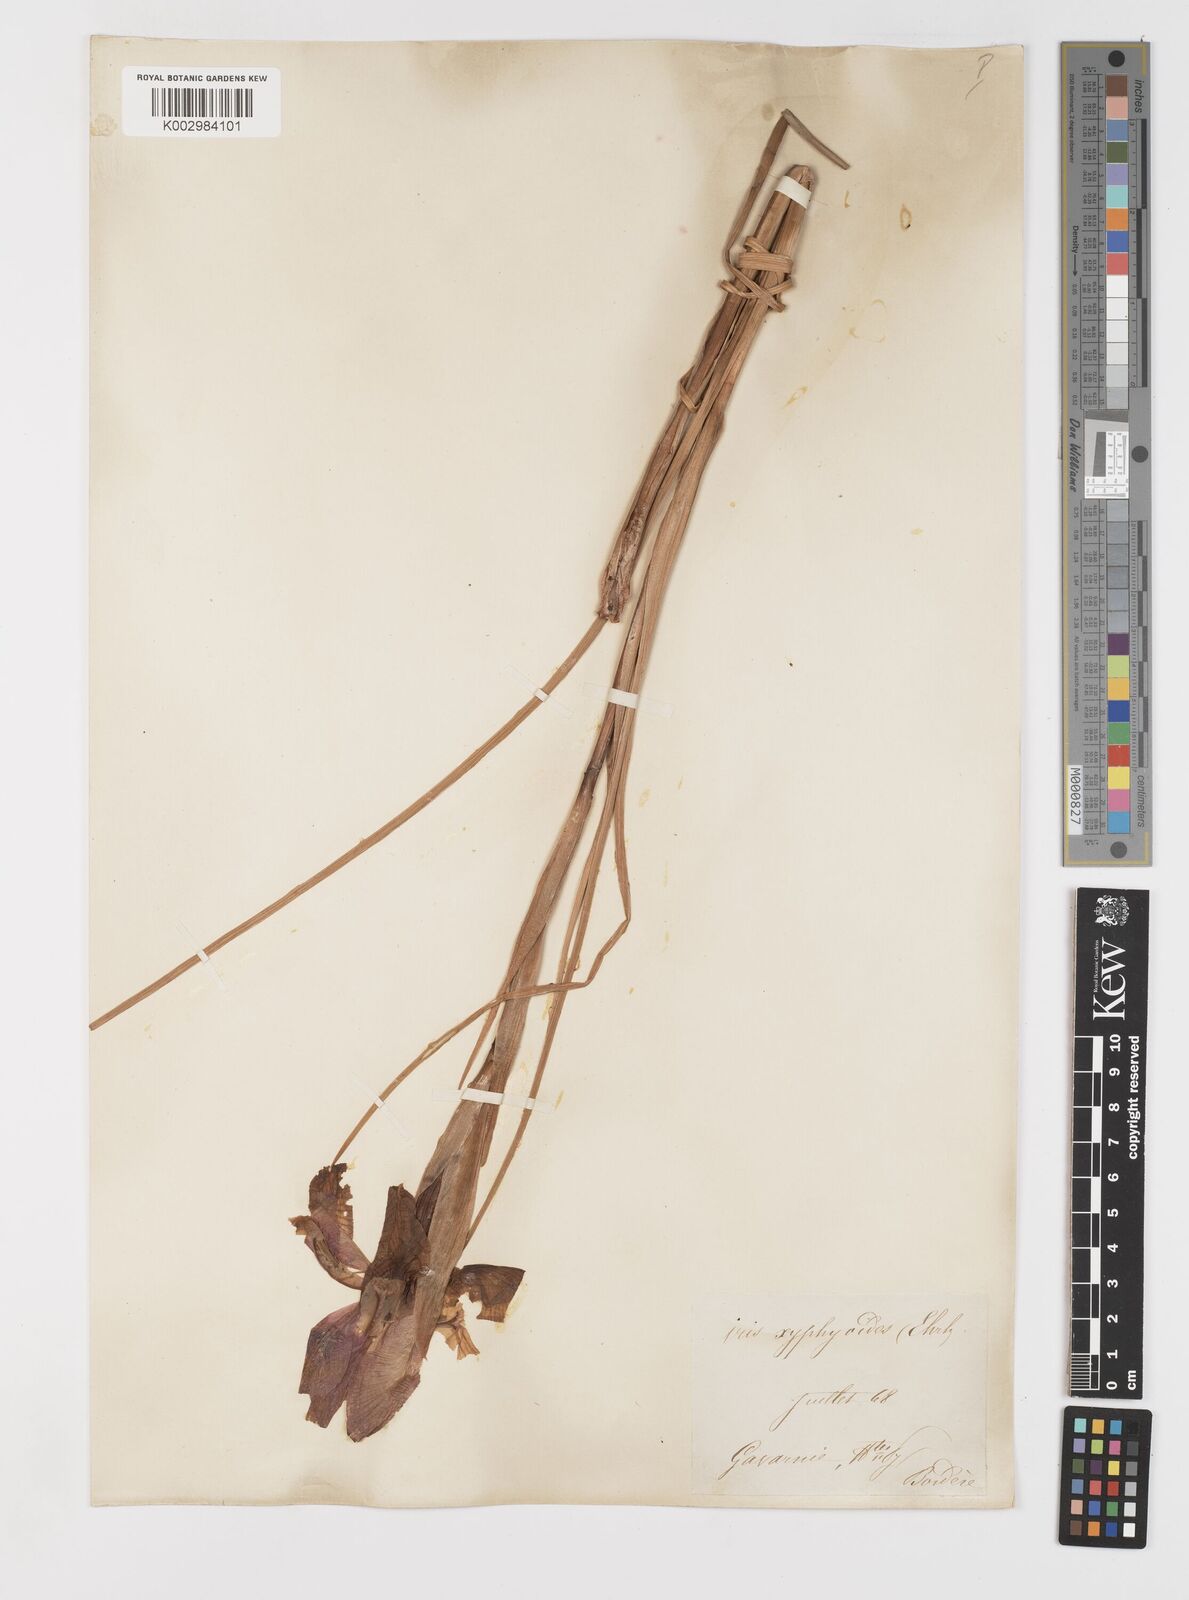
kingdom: Plantae
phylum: Tracheophyta
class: Liliopsida
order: Asparagales
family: Iridaceae
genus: Iris
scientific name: Iris jacquinii
